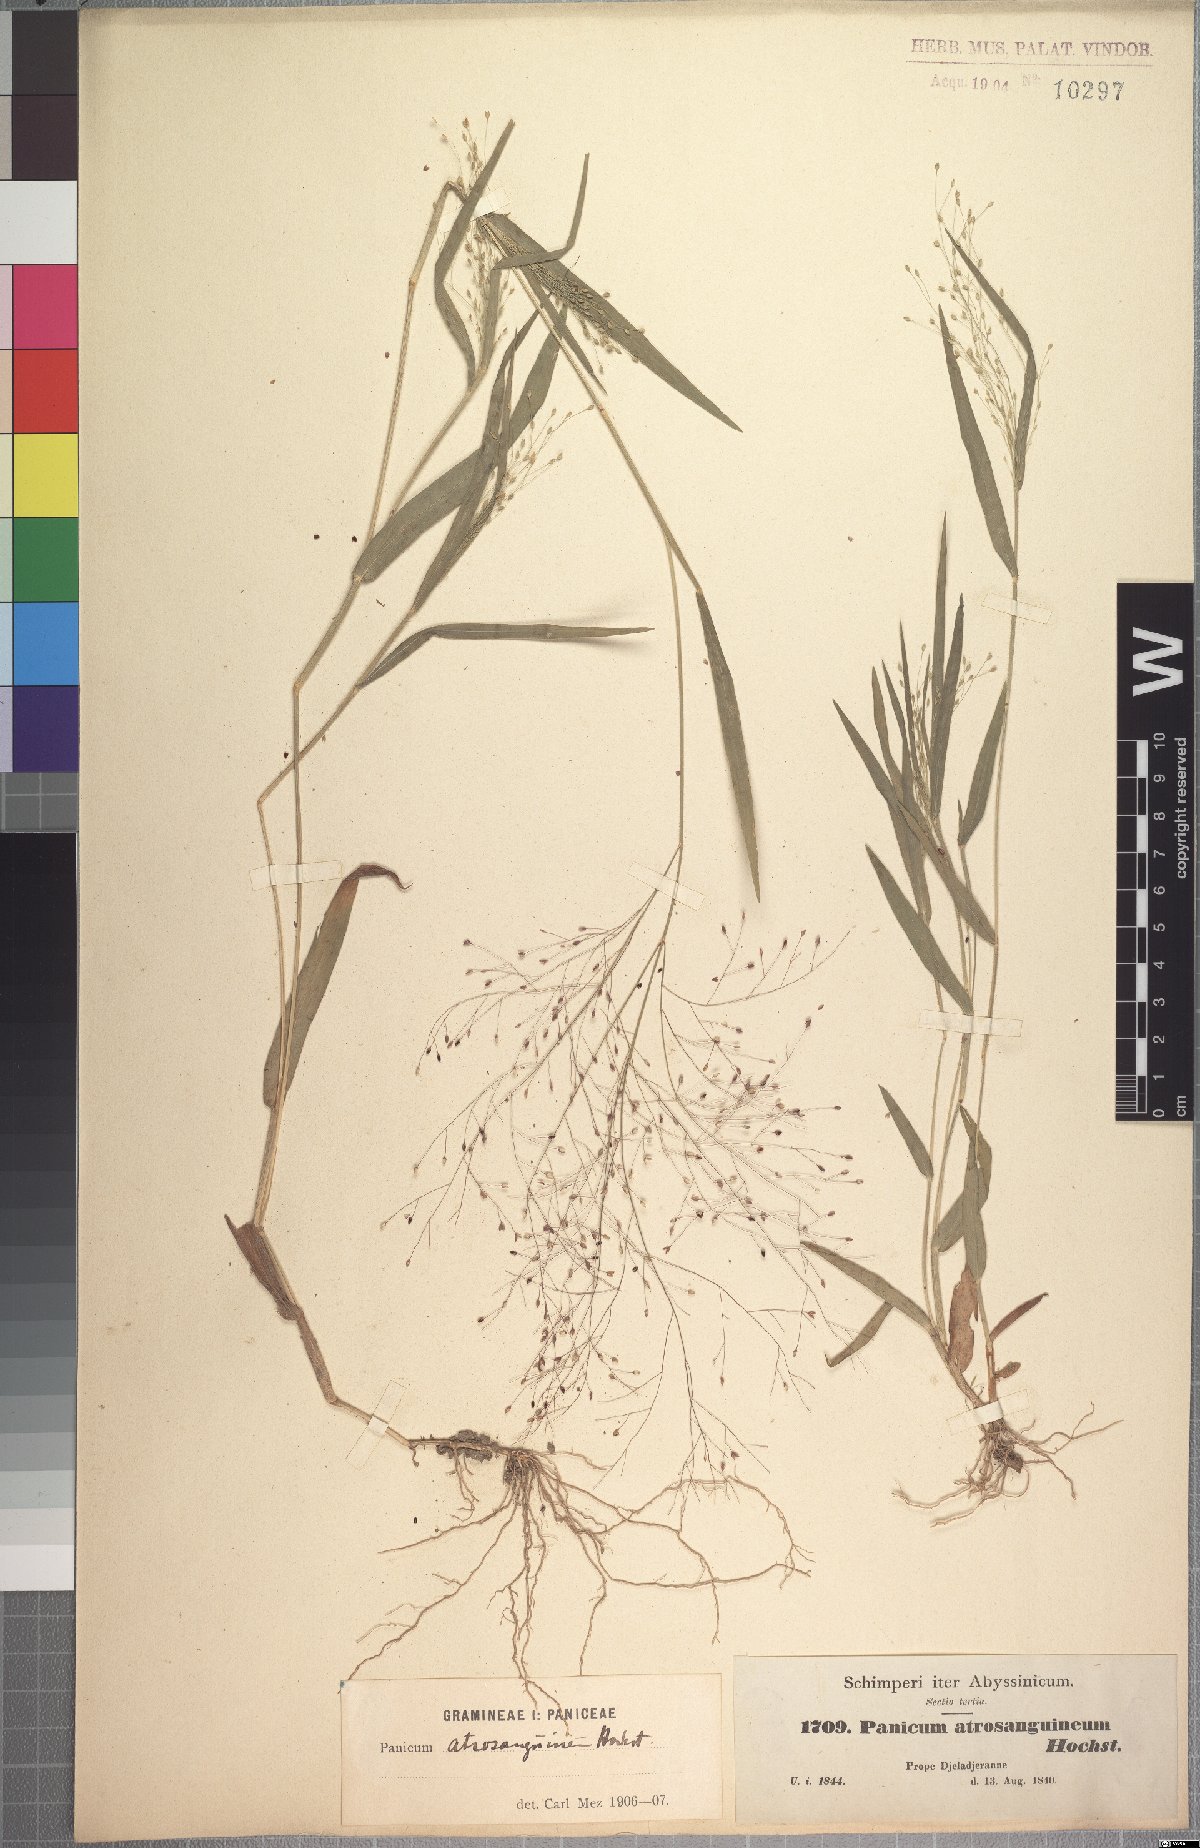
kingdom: Plantae
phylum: Tracheophyta
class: Liliopsida
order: Poales
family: Poaceae
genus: Panicum
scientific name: Panicum atrosanguineum
